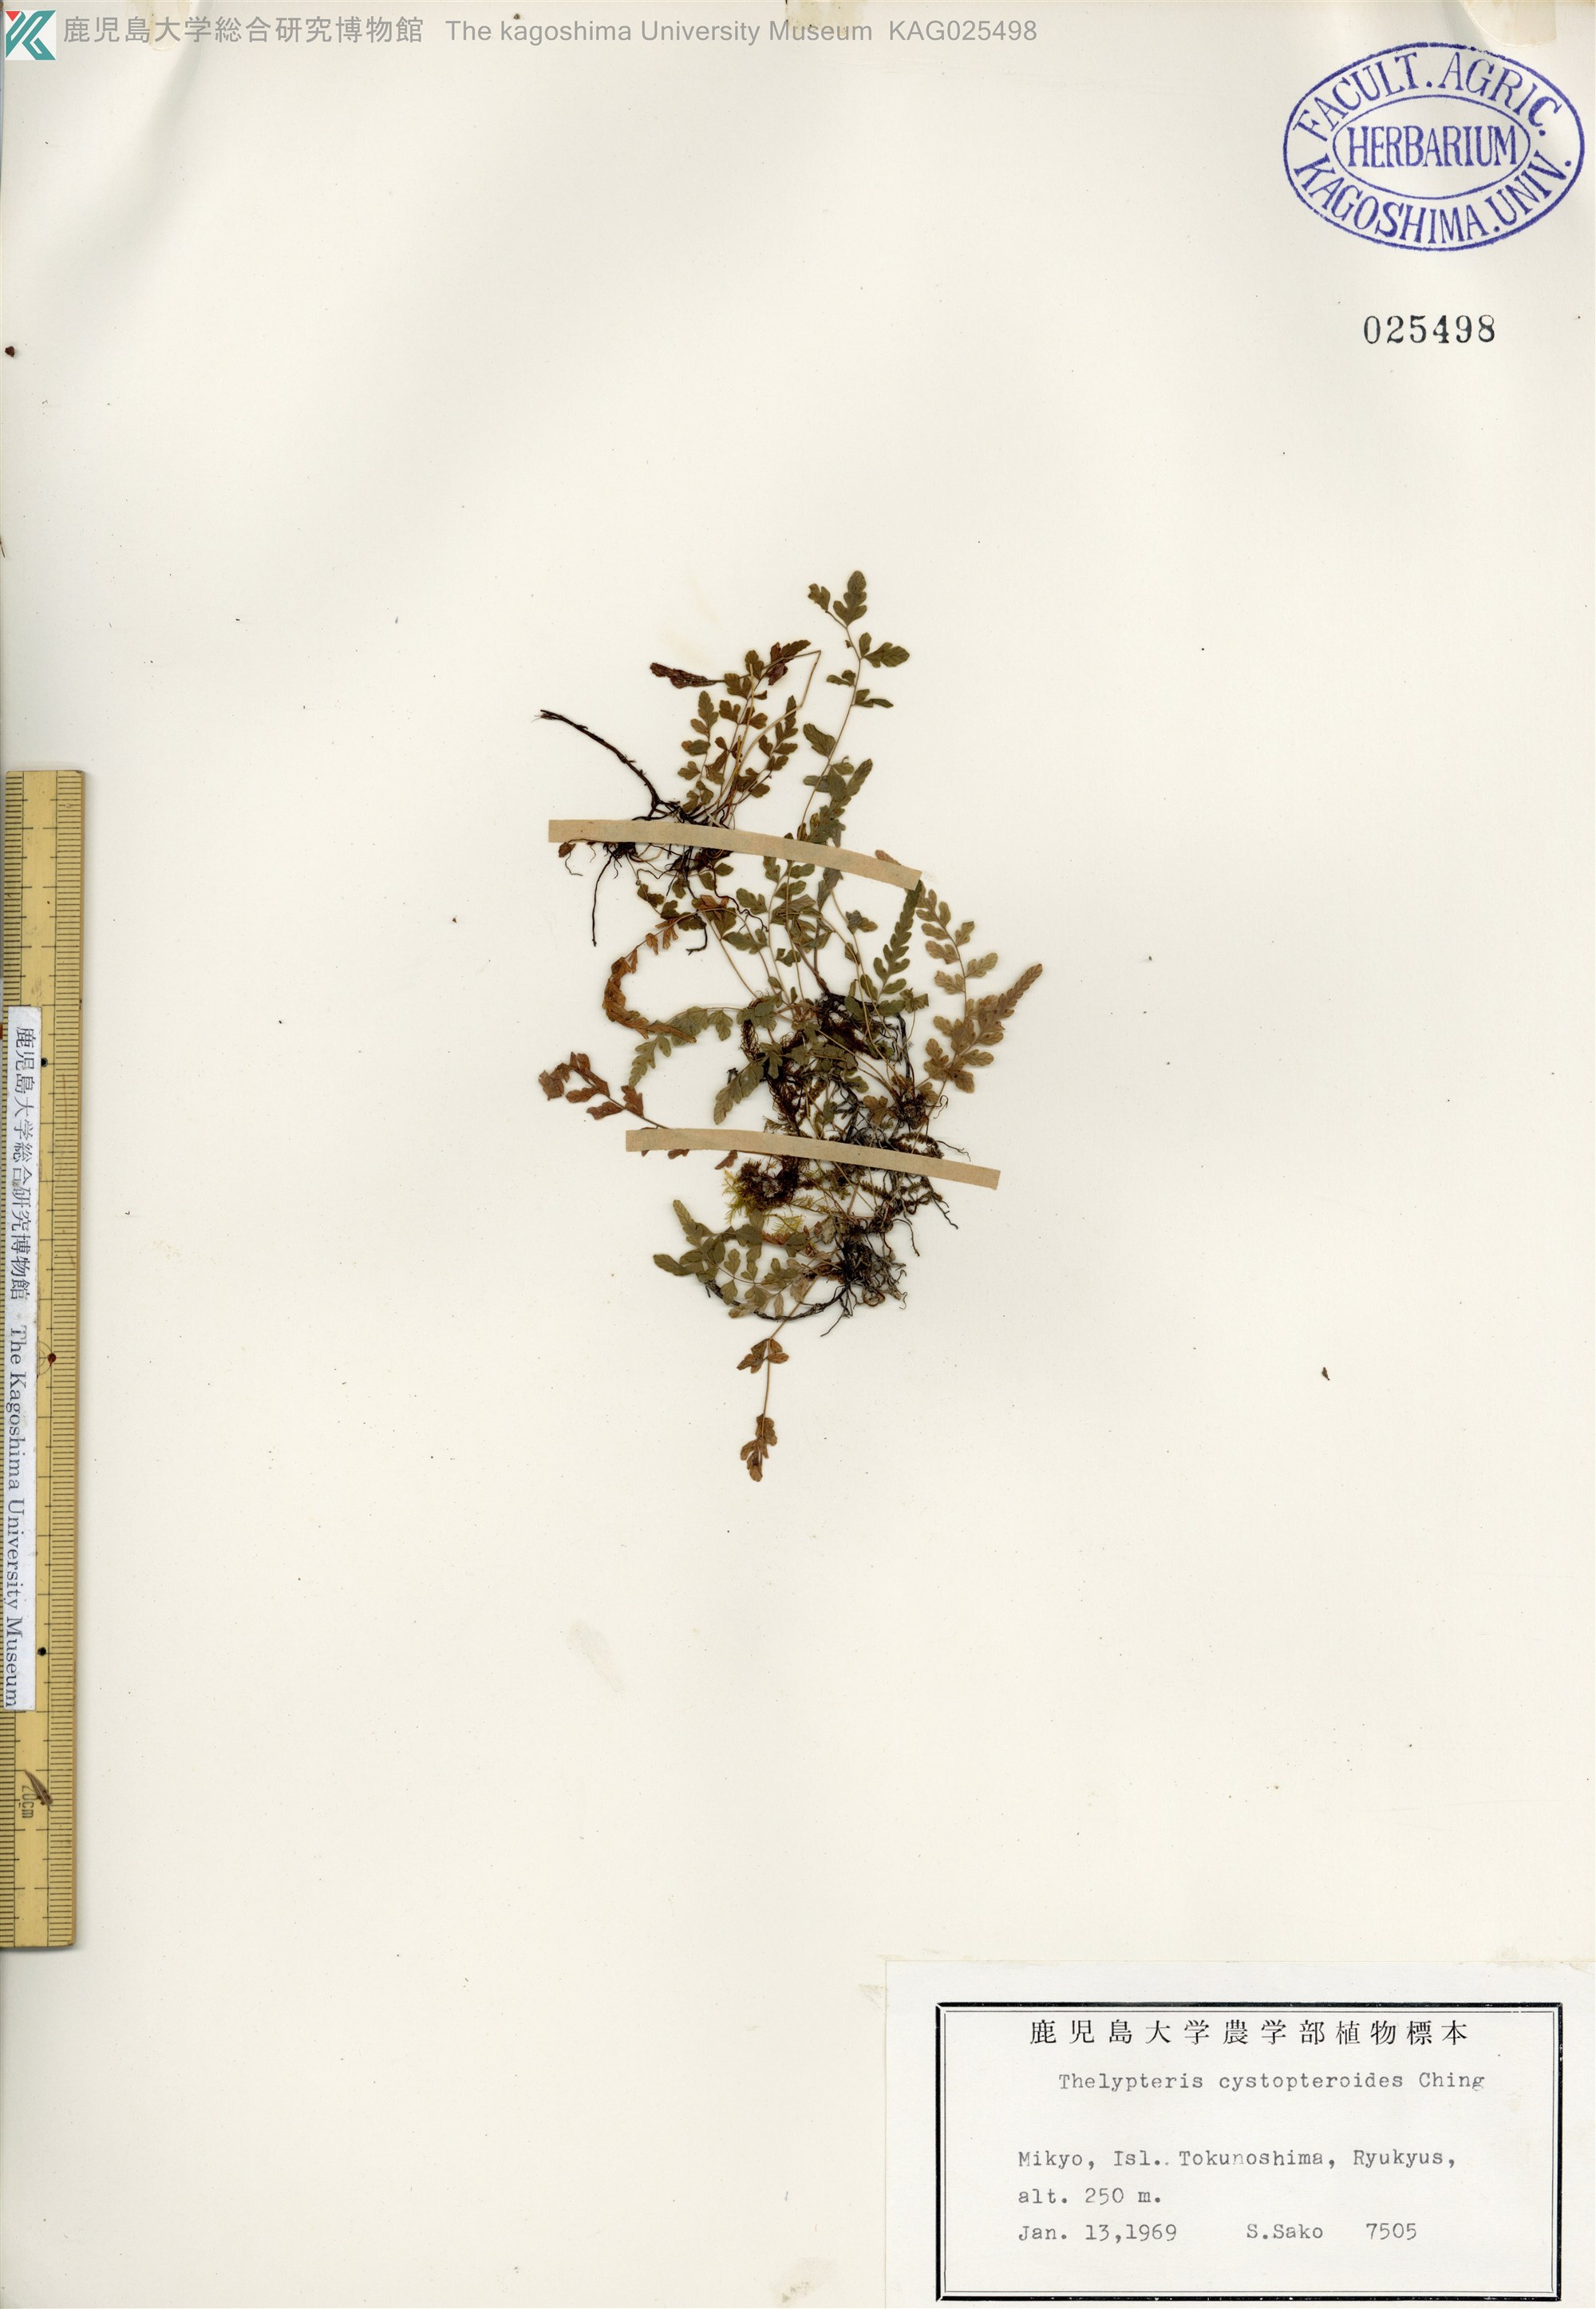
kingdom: Plantae
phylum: Tracheophyta
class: Polypodiopsida
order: Polypodiales
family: Thelypteridaceae
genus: Amauropelta
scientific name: Amauropelta cystopteroides
